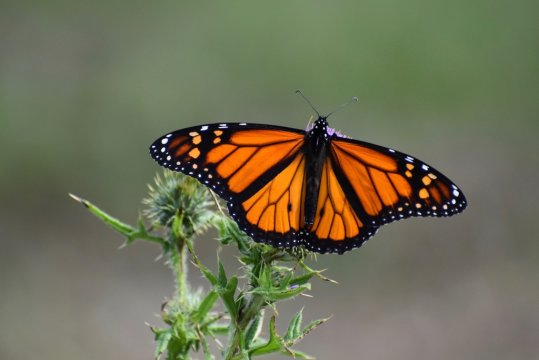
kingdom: Animalia
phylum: Arthropoda
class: Insecta
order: Lepidoptera
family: Nymphalidae
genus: Danaus
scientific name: Danaus plexippus
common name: Monarch
